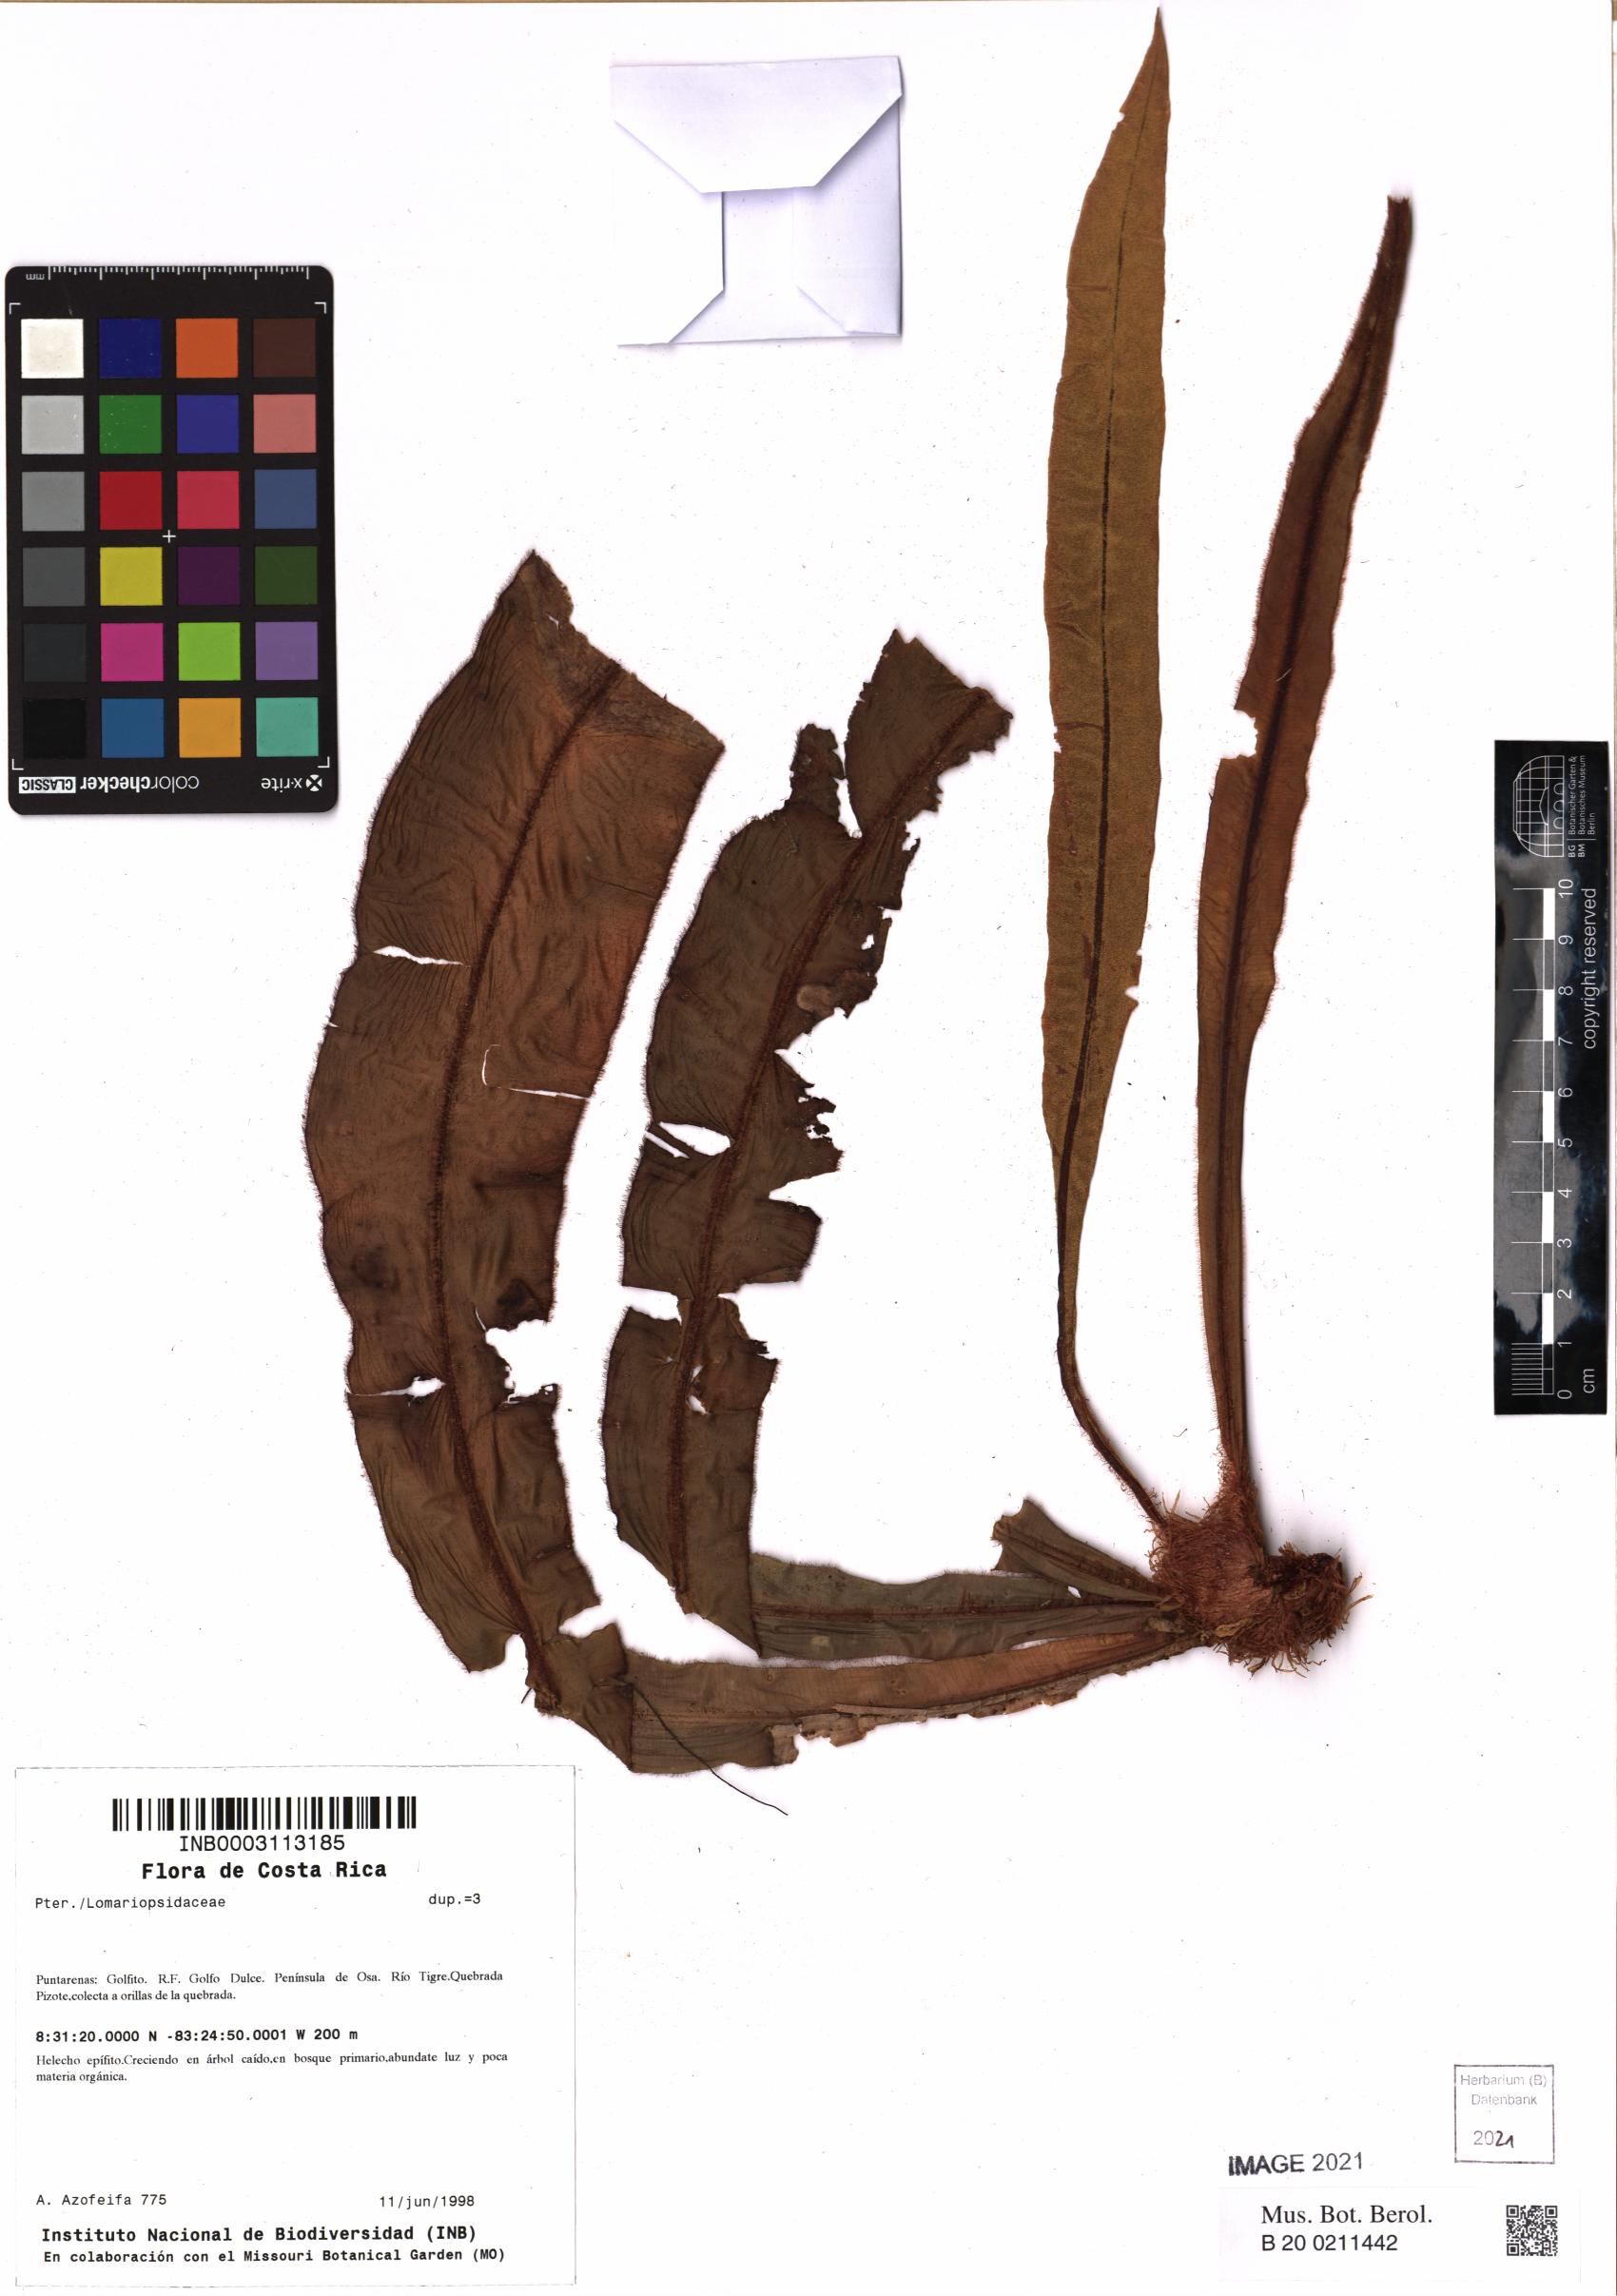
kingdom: Plantae
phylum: Tracheophyta
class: Polypodiopsida
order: Polypodiales
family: Dryopteridaceae
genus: Elaphoglossum
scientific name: Elaphoglossum valdespinoi
